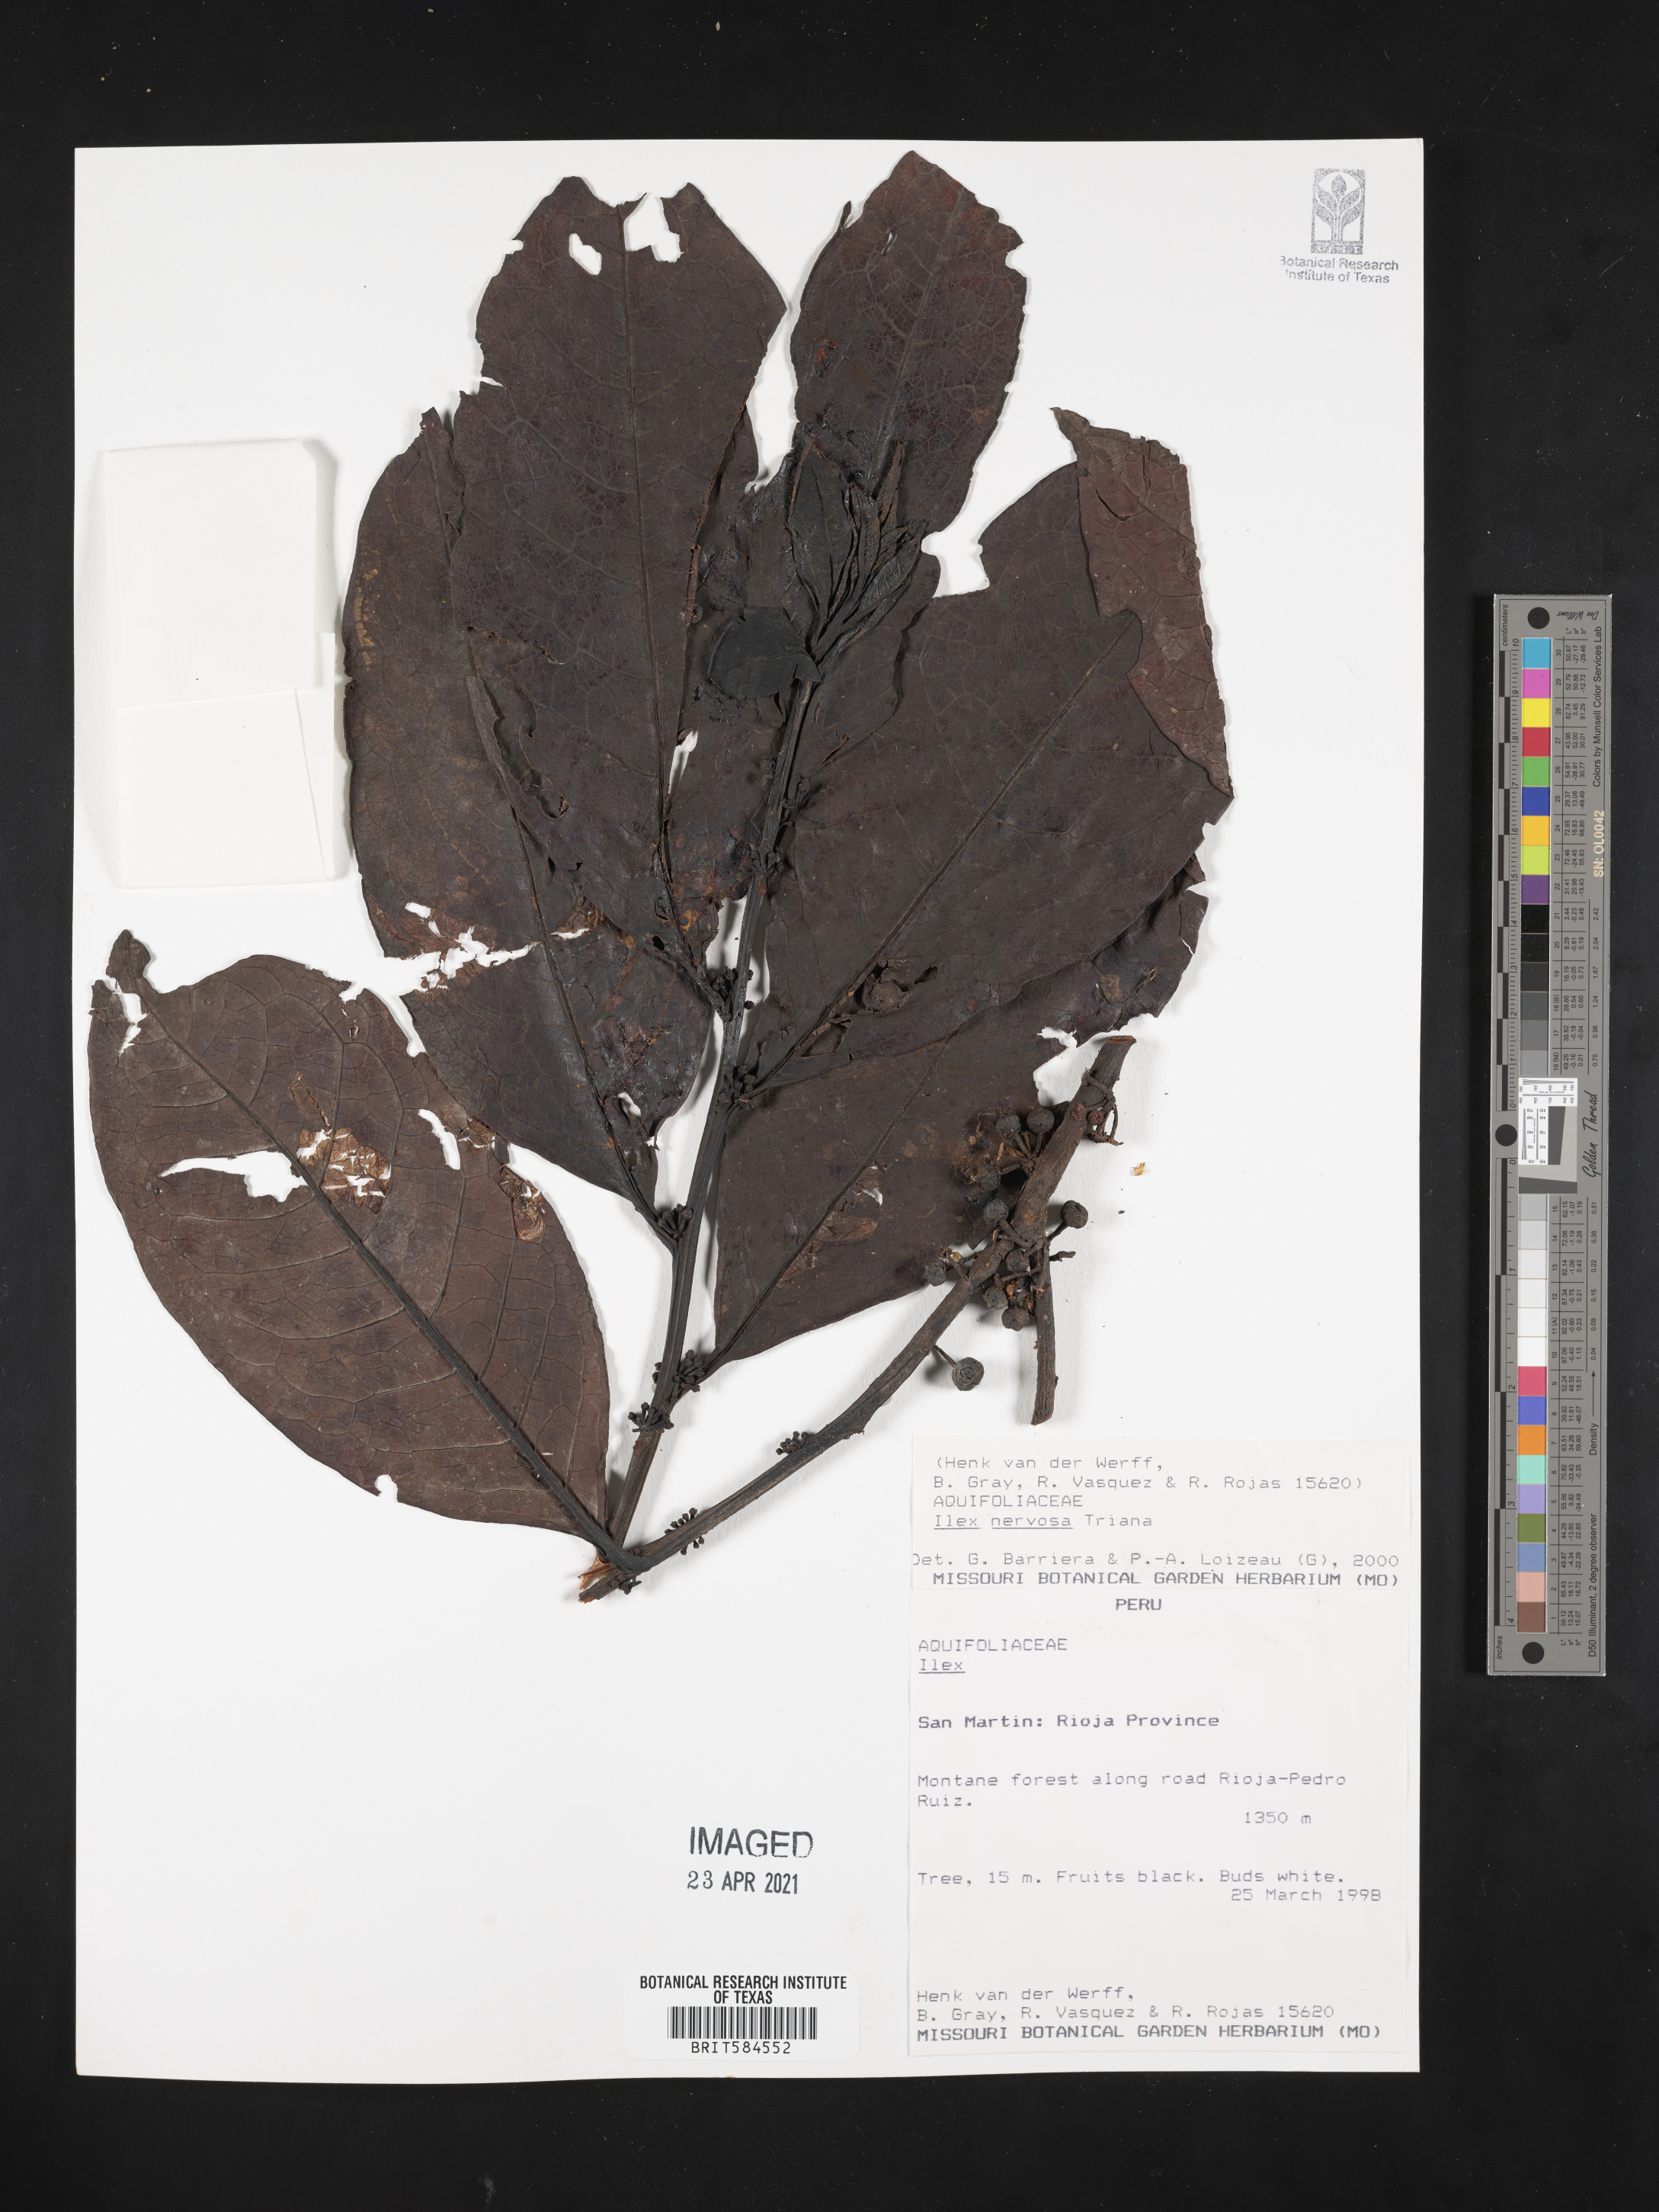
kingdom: Plantae
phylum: Tracheophyta
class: Magnoliopsida
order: Aquifoliales
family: Aquifoliaceae
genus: Ilex
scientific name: Ilex nervosa
